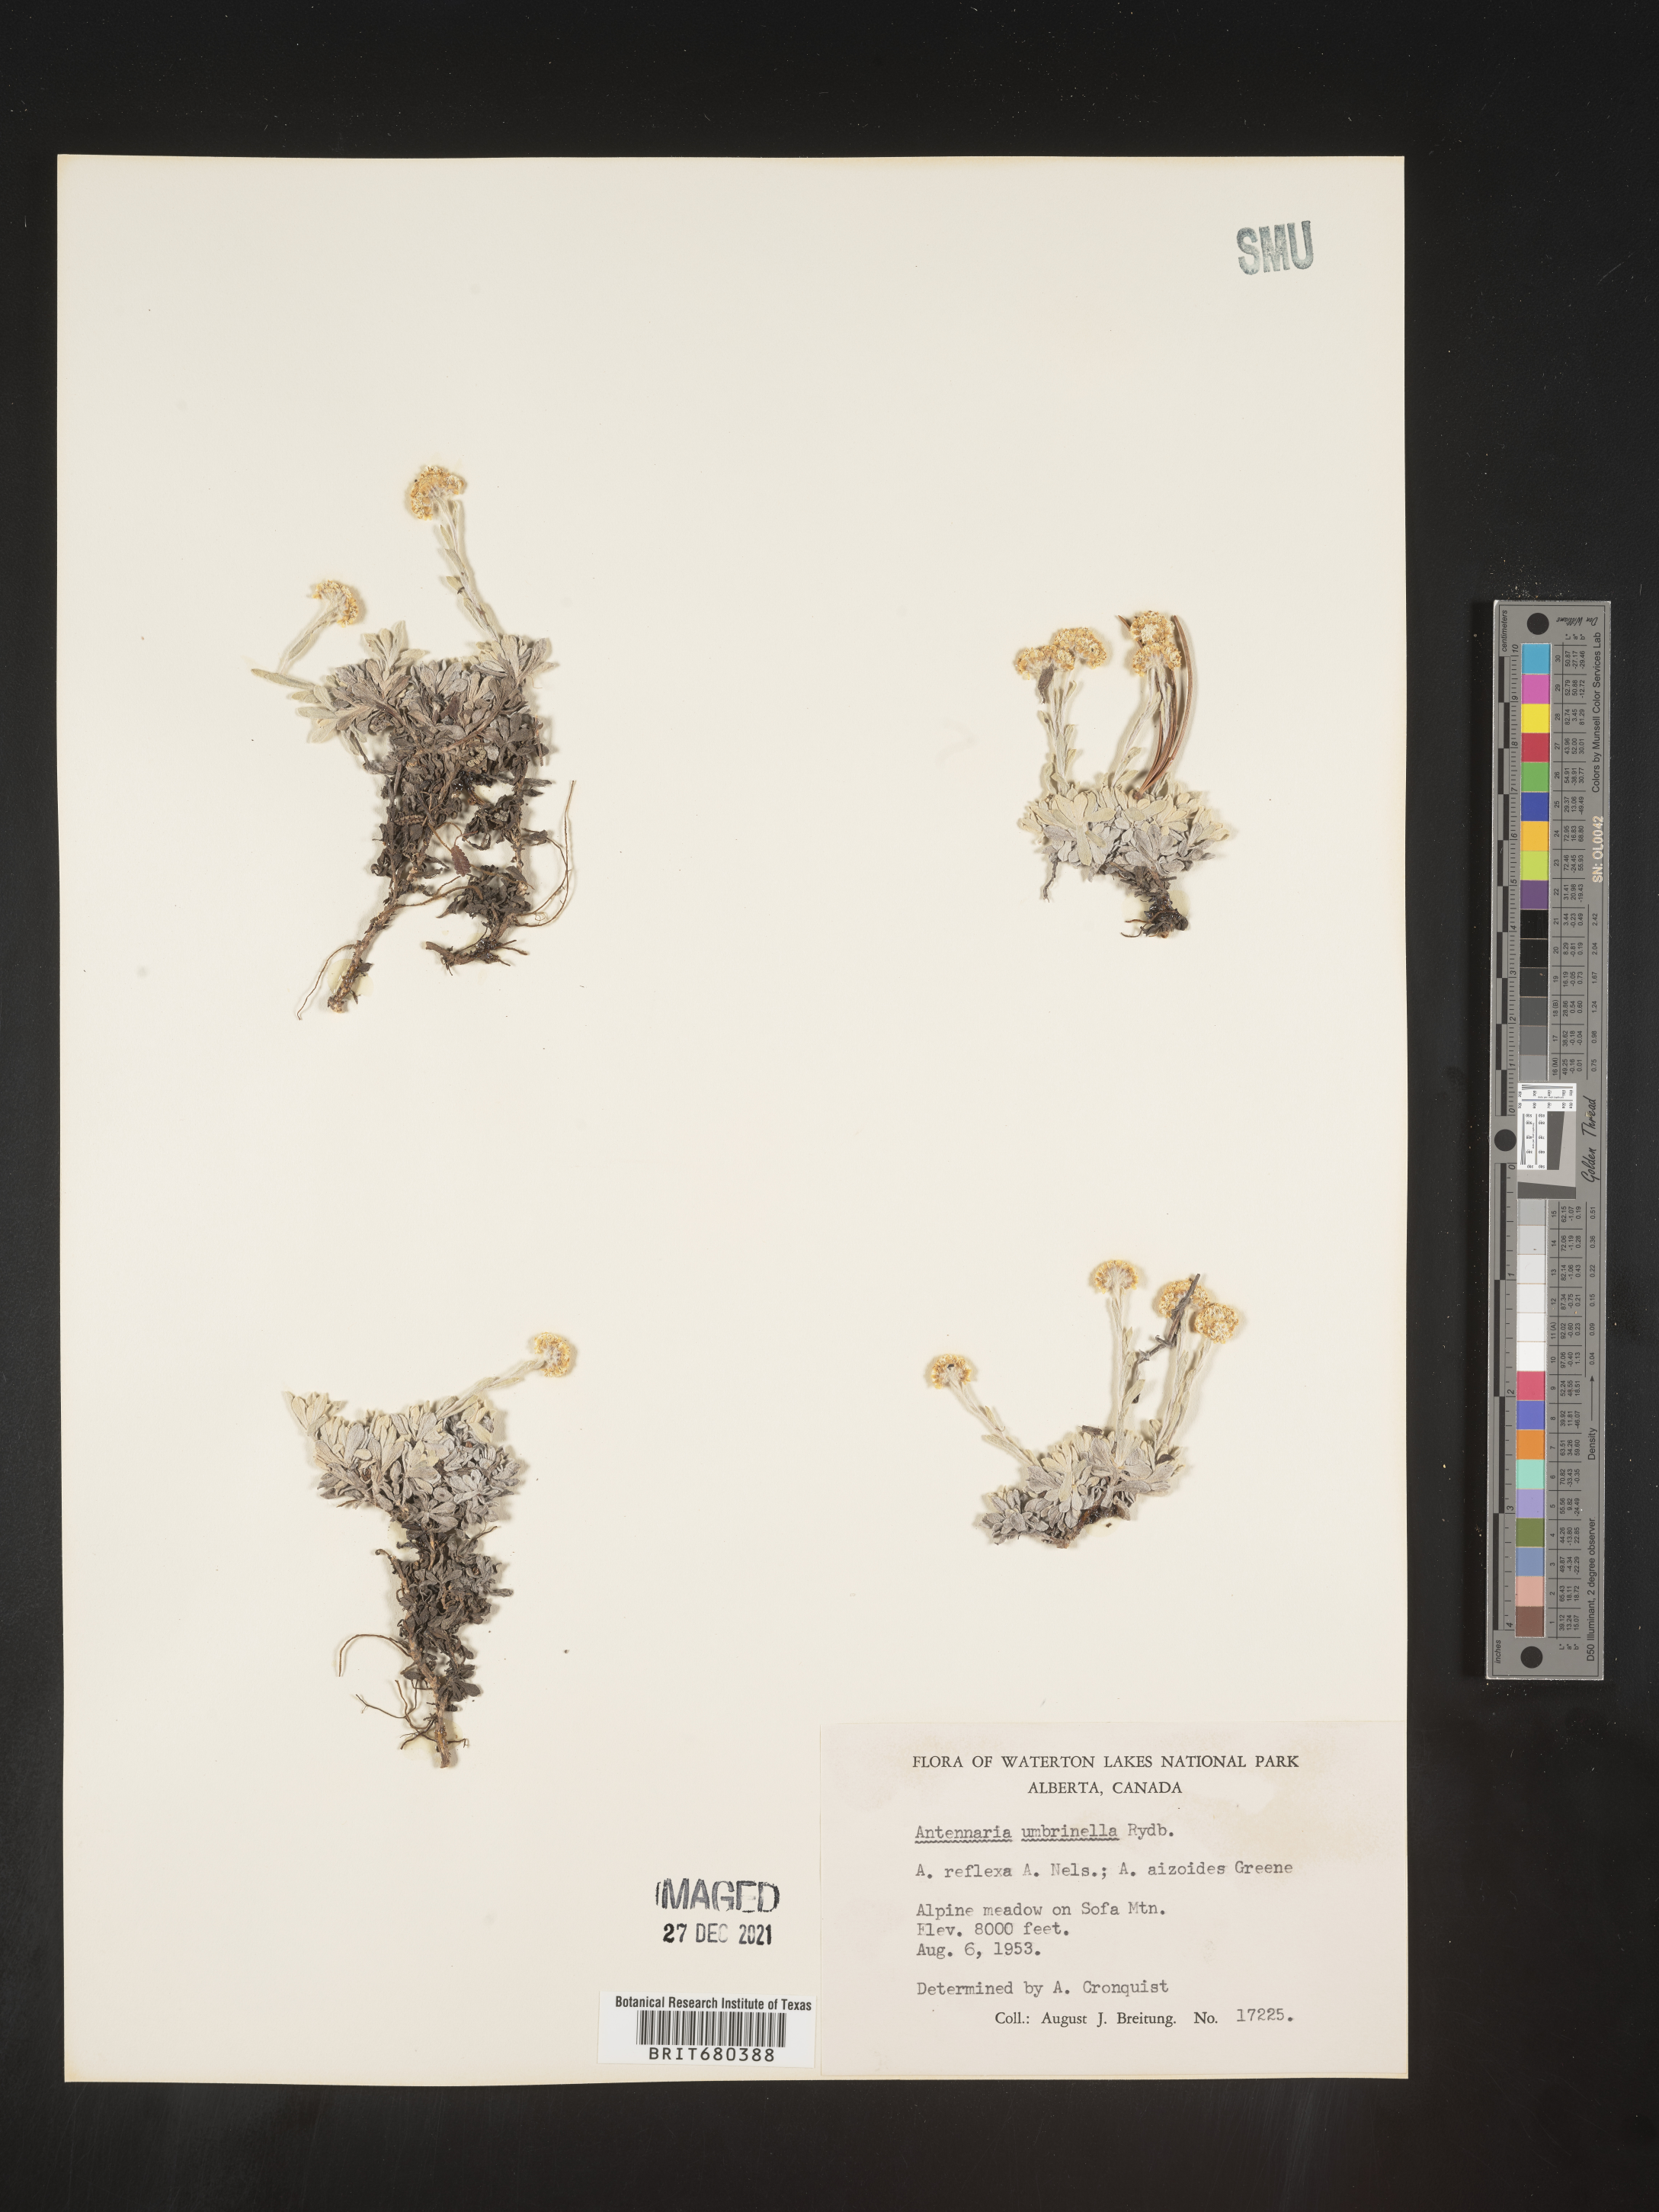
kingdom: Plantae
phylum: Tracheophyta
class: Magnoliopsida
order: Asterales
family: Asteraceae
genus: Antennaria
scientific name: Antennaria umbrinella
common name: Brown pussytoes
